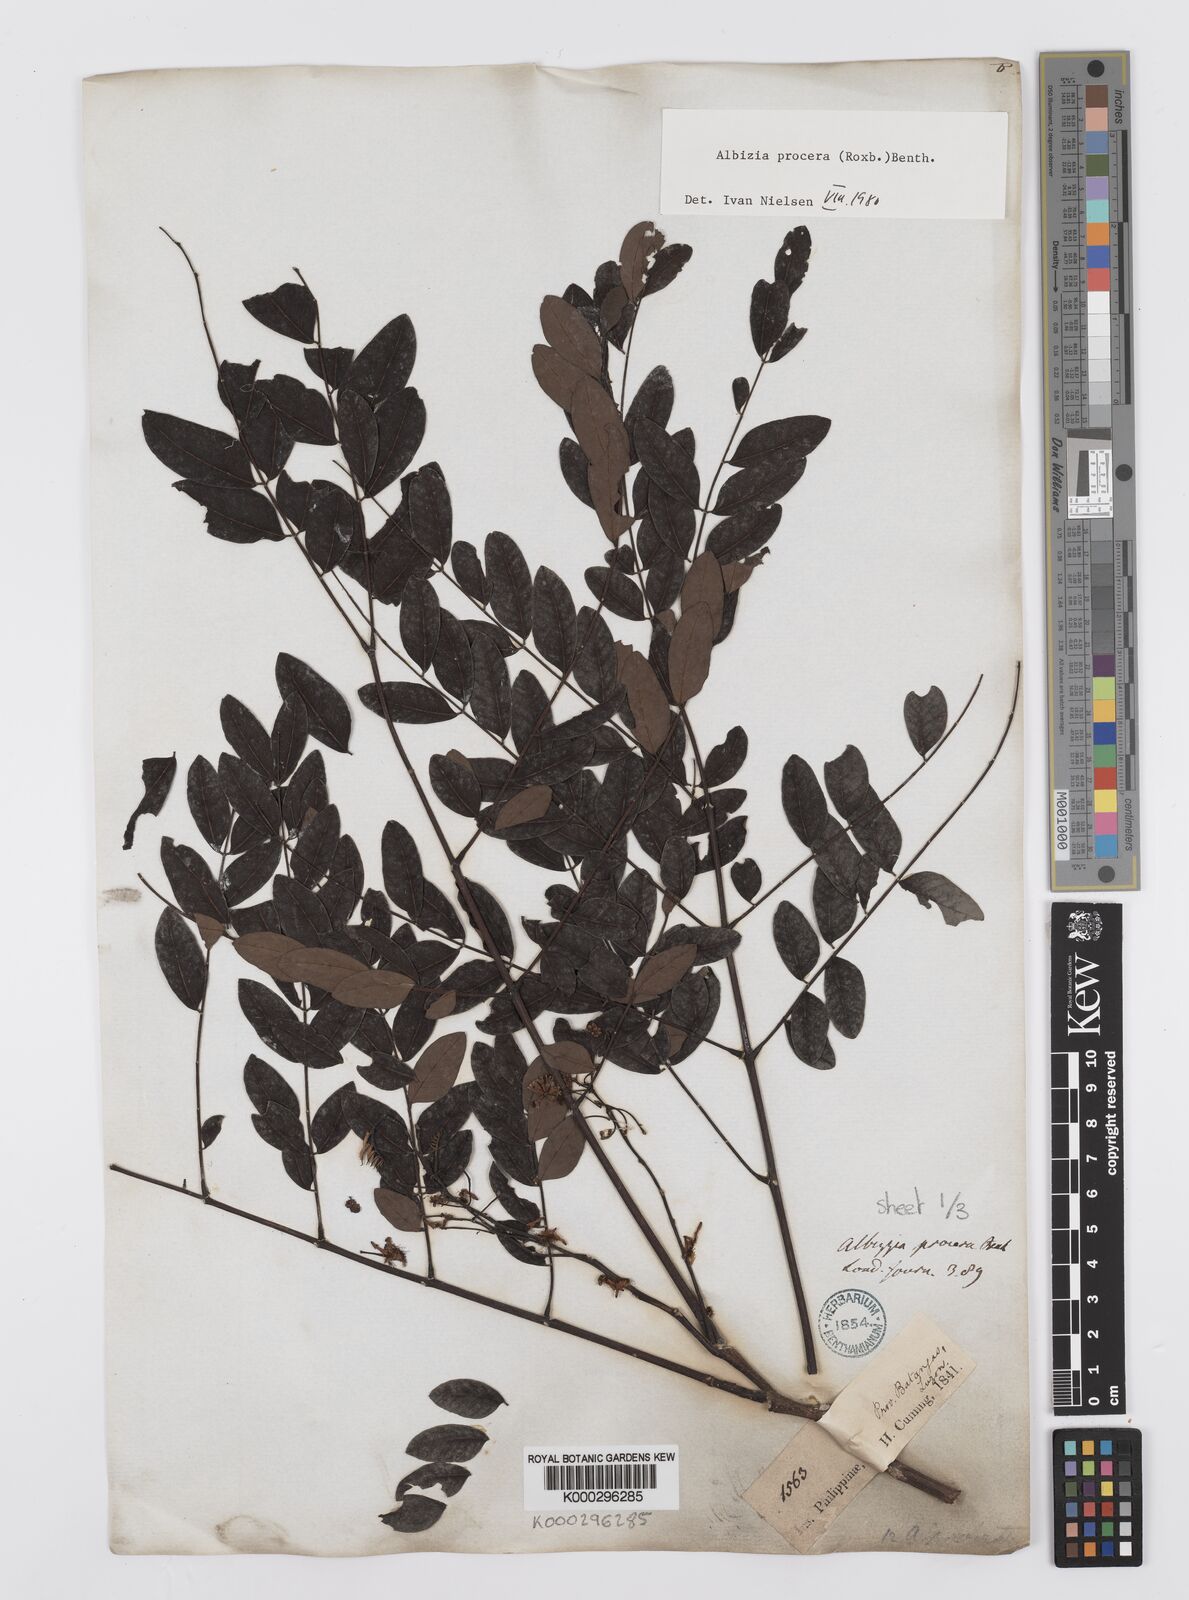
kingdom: Plantae
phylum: Tracheophyta
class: Magnoliopsida
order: Fabales
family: Fabaceae
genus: Albizia
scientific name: Albizia procera
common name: Tall albizia
